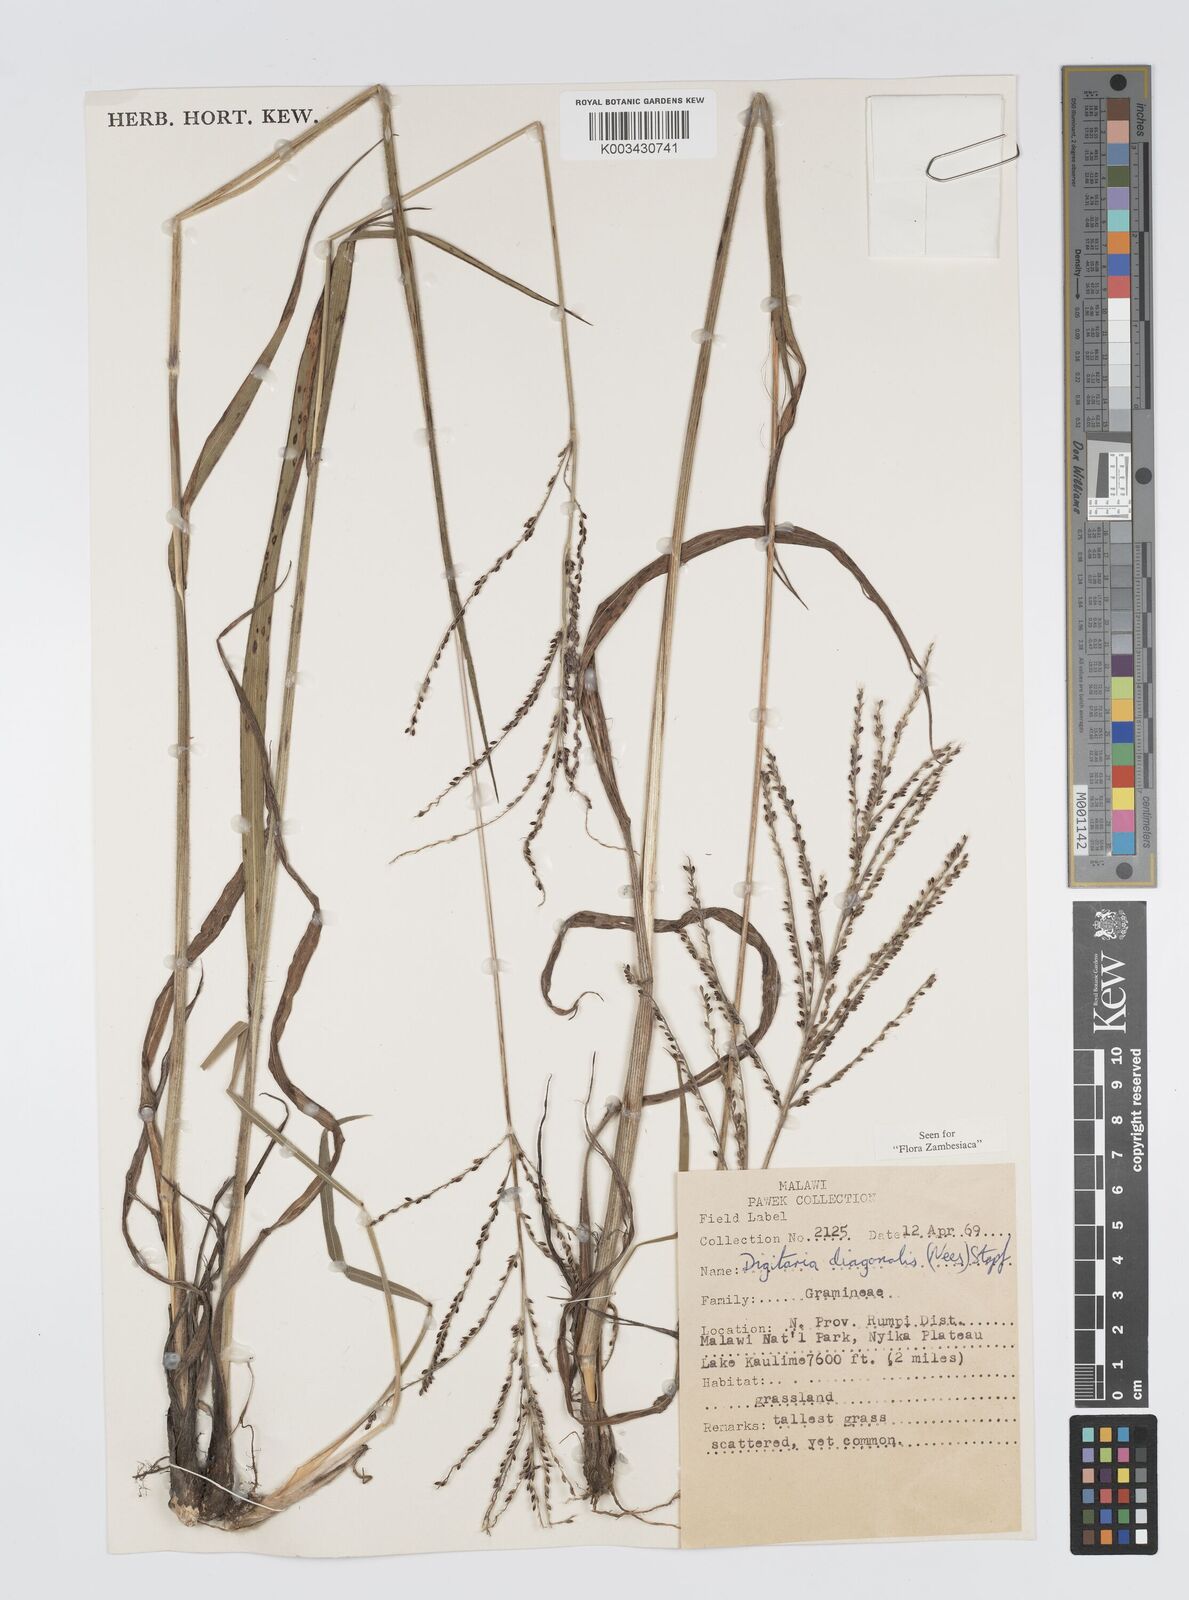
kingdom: Plantae
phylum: Tracheophyta
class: Liliopsida
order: Poales
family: Poaceae
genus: Digitaria
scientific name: Digitaria diagonalis
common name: Brown-seed finger grass
